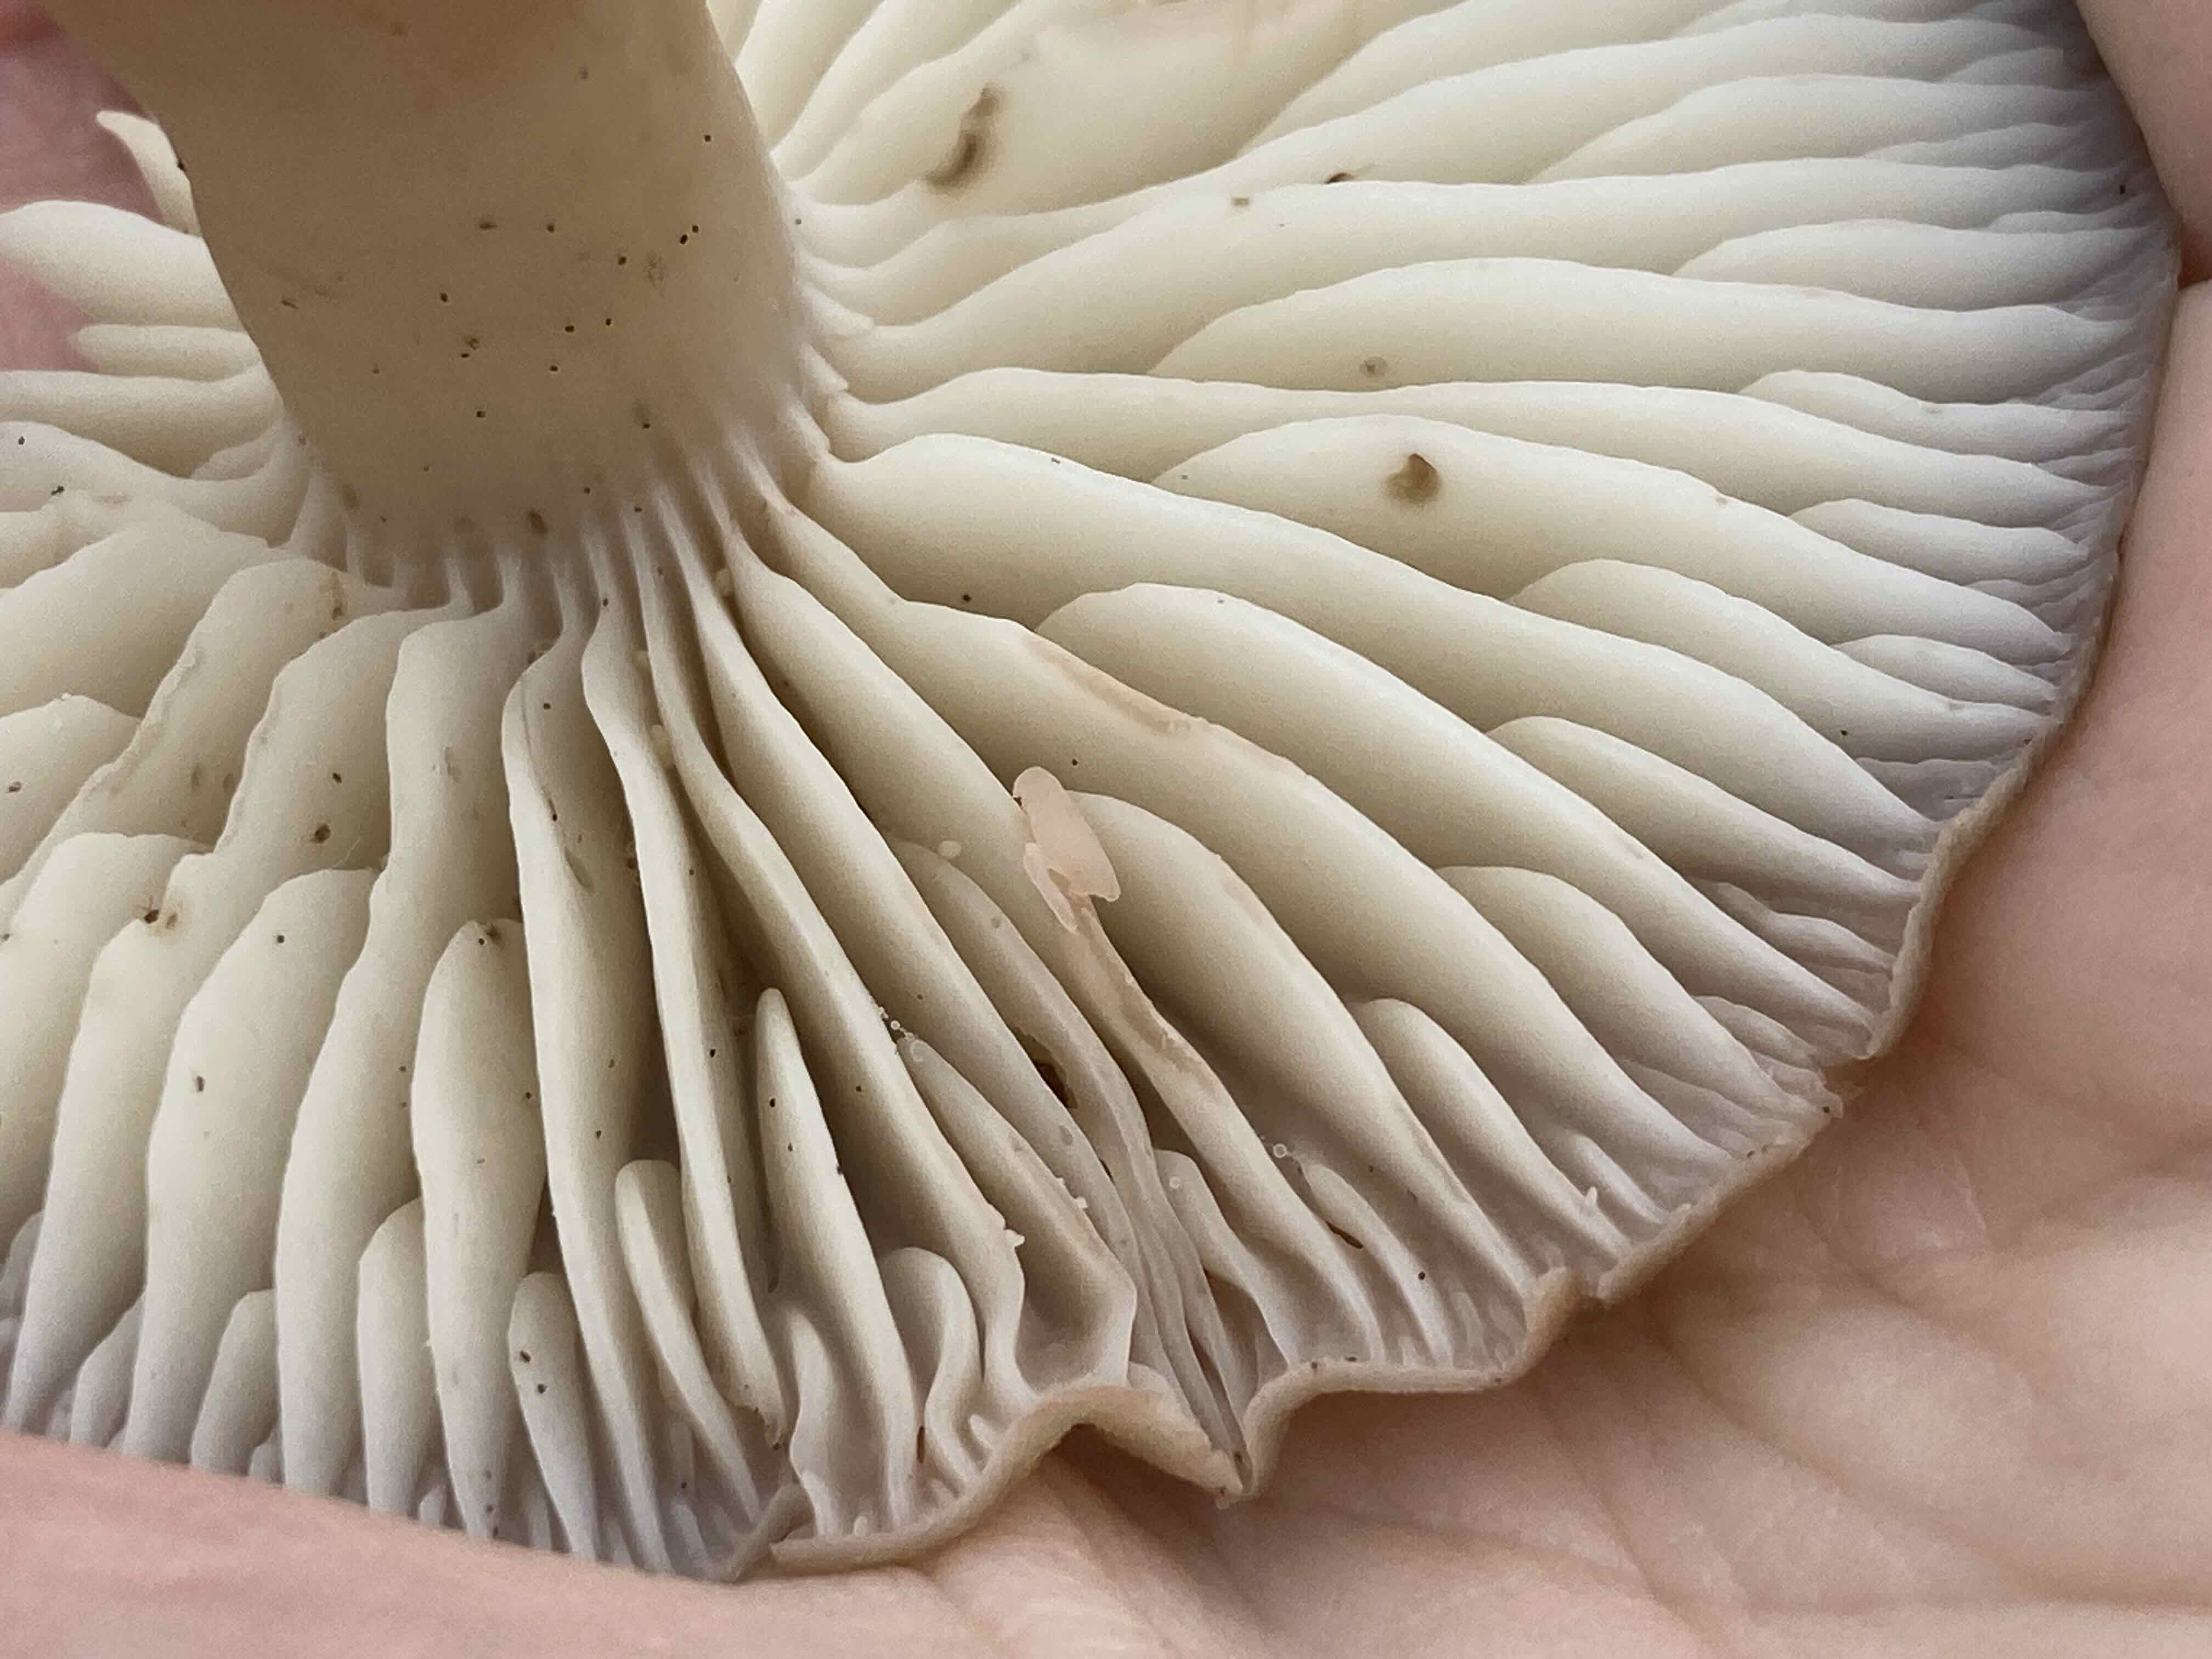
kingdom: Fungi
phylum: Basidiomycota
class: Agaricomycetes
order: Agaricales
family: Hygrophoraceae
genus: Hygrocybe
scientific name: Hygrocybe ingrata
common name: Jensens vokshat
